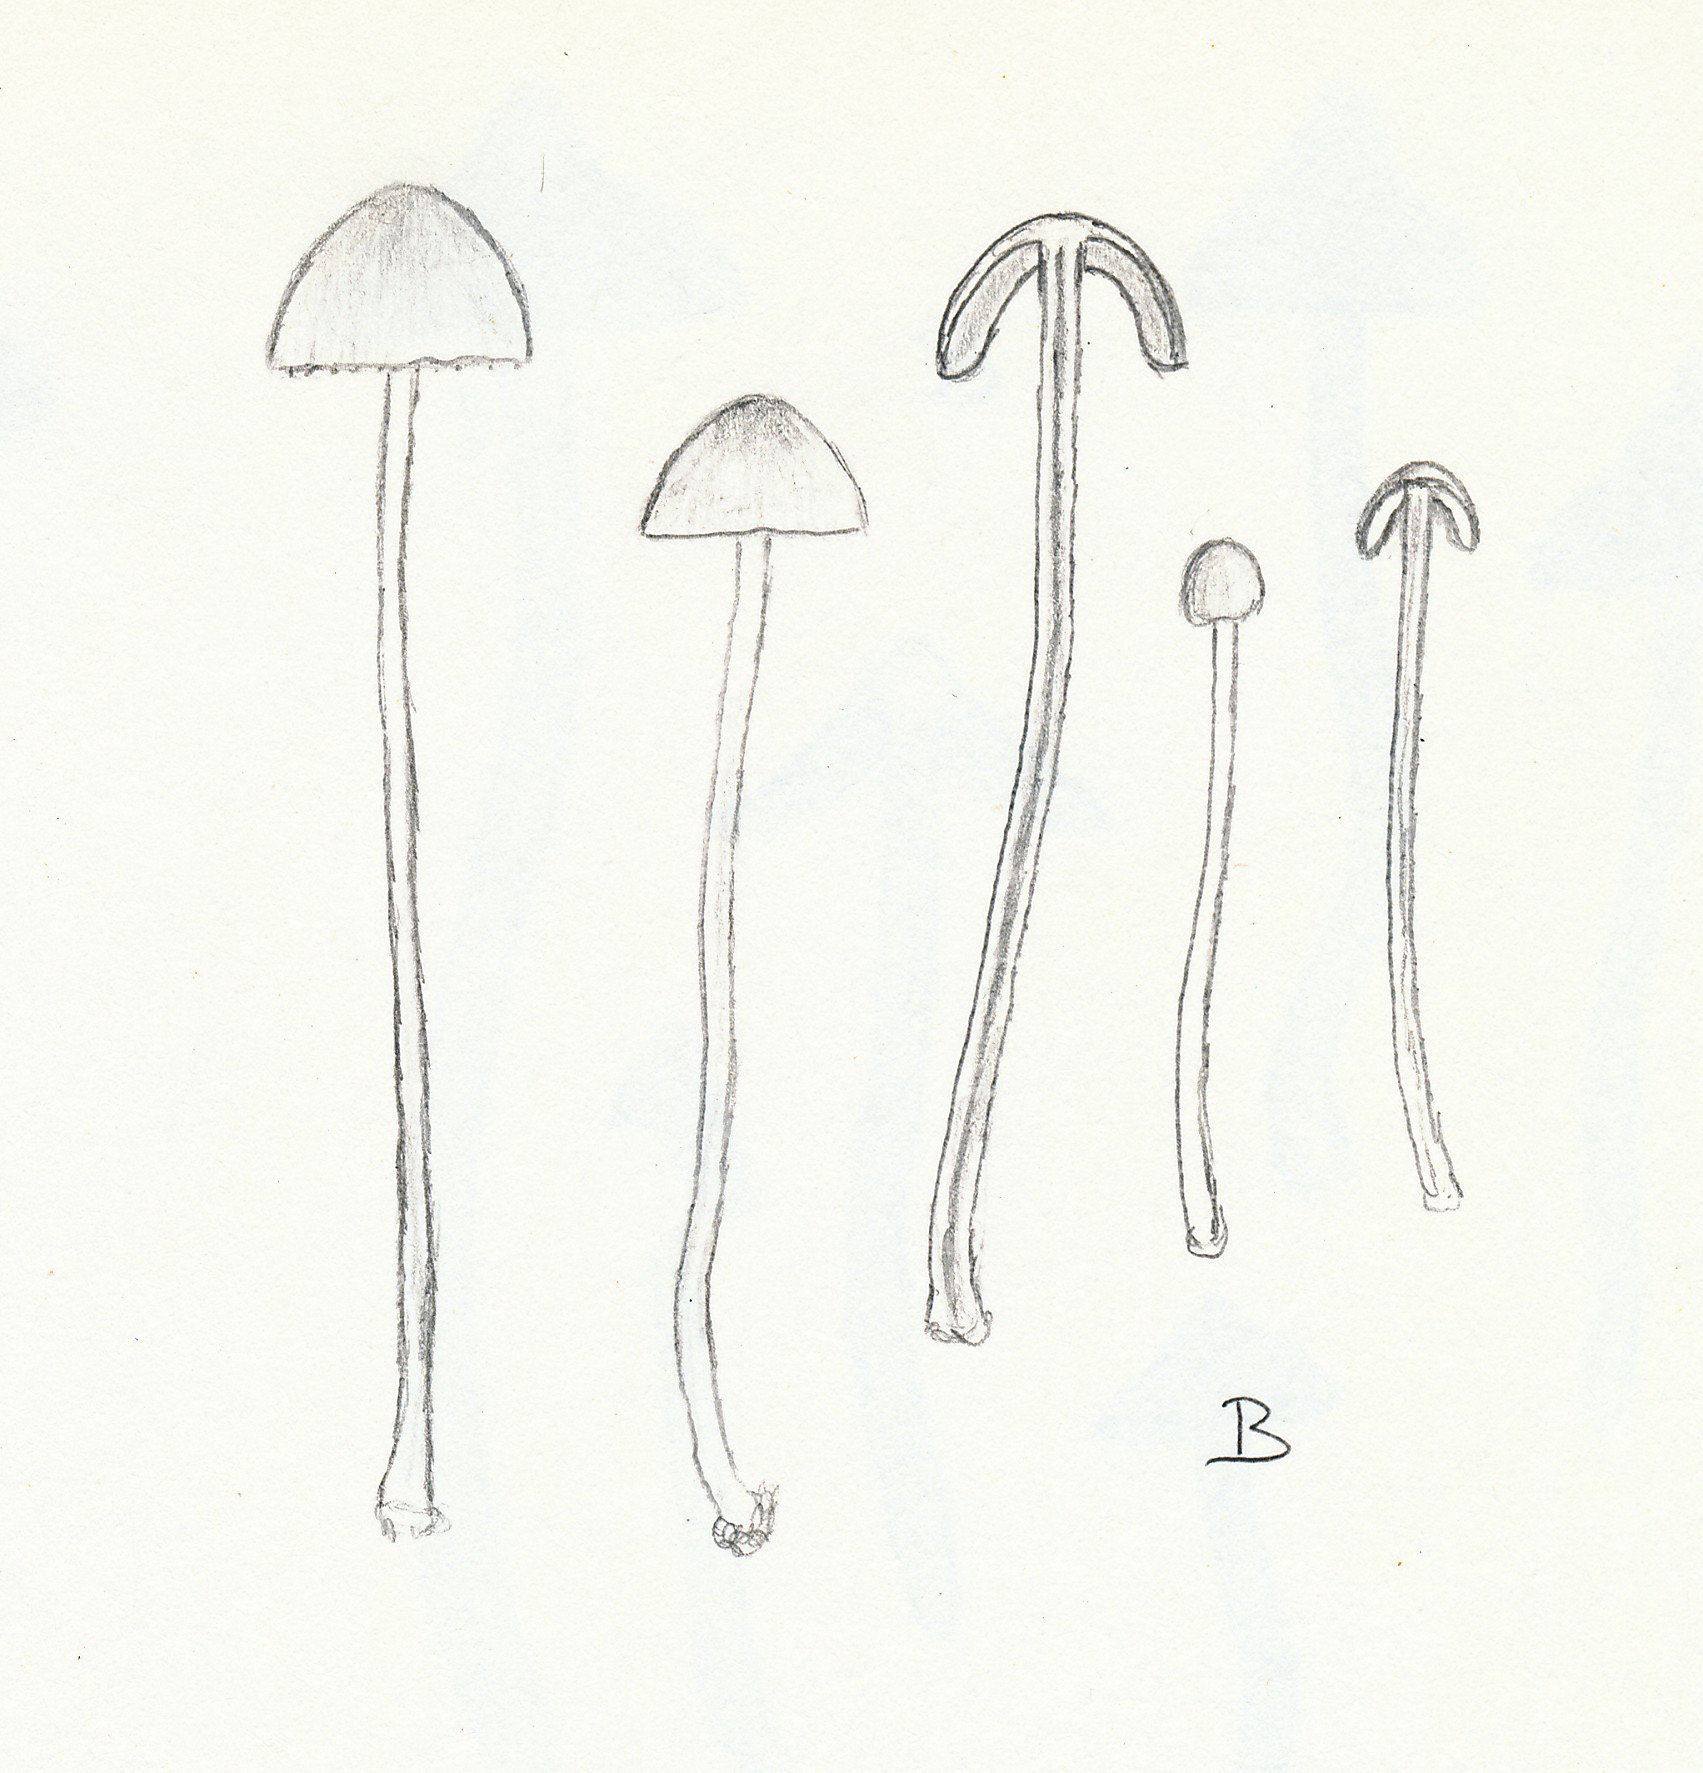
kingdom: Fungi
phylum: Basidiomycota
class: Agaricomycetes
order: Agaricales
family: Bolbitiaceae
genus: Conocybe
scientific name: Conocybe siliginea
